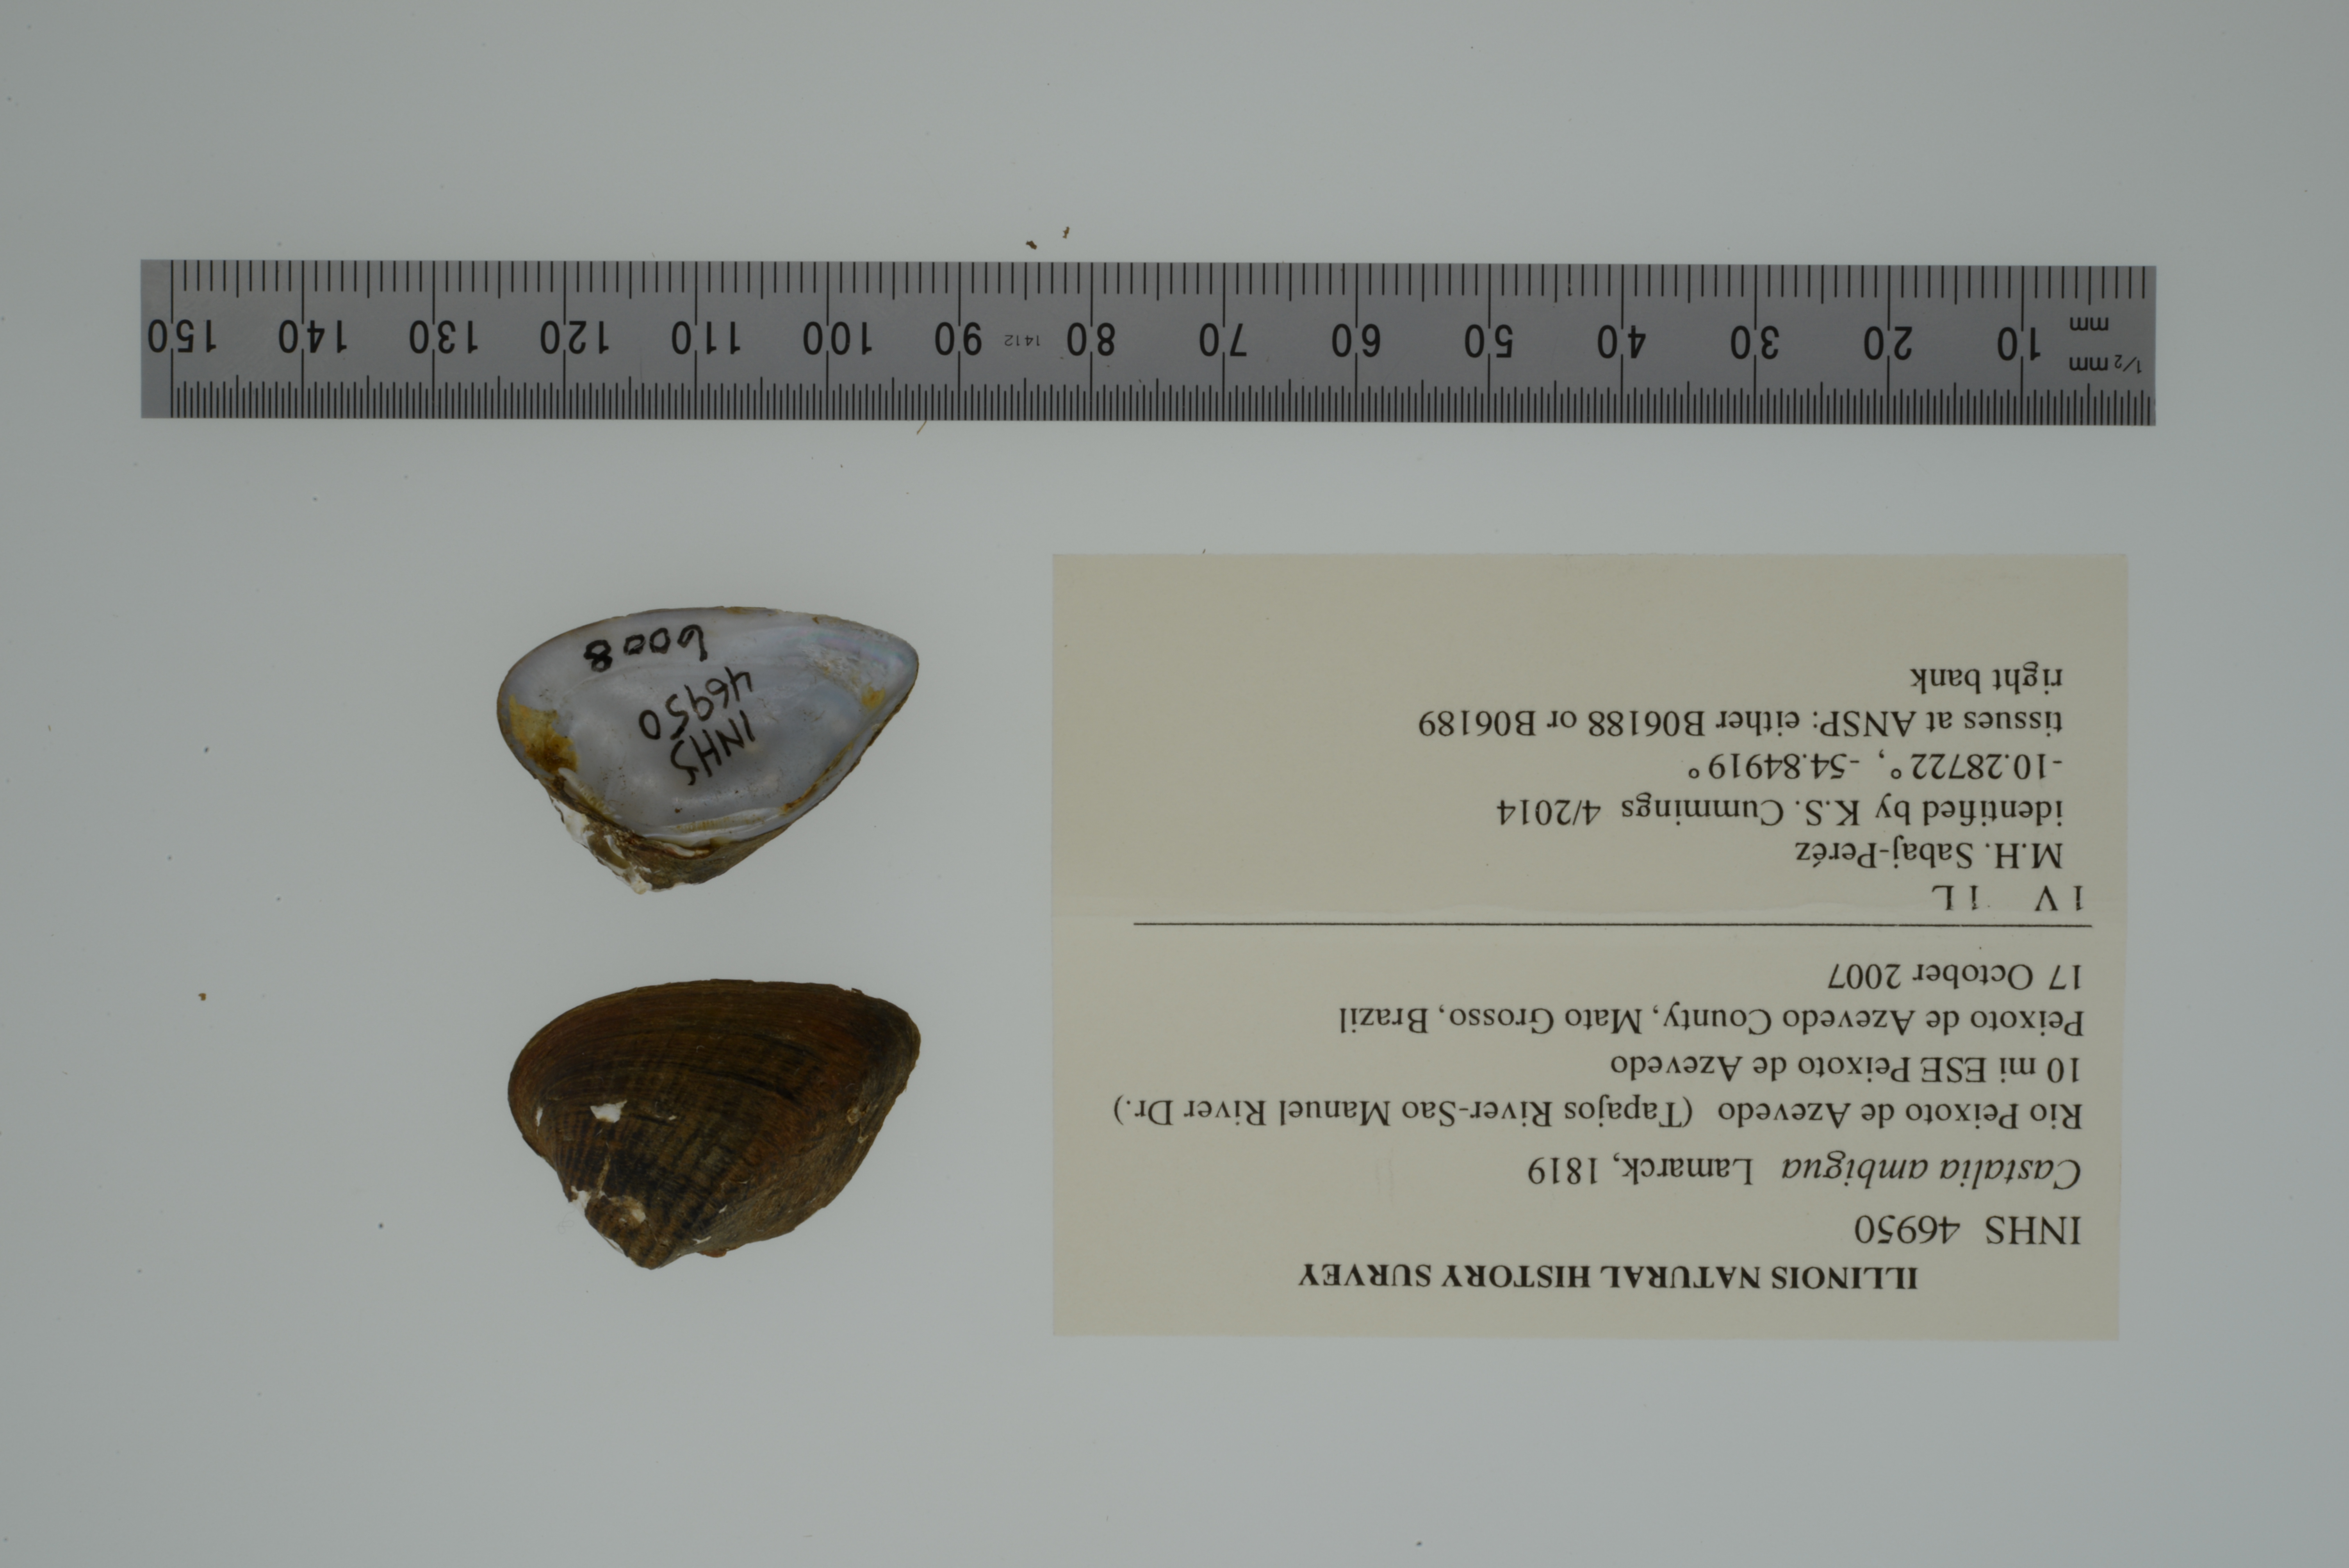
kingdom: Animalia
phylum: Mollusca
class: Bivalvia
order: Unionida
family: Hyriidae
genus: Castalia
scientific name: Castalia ambigua
